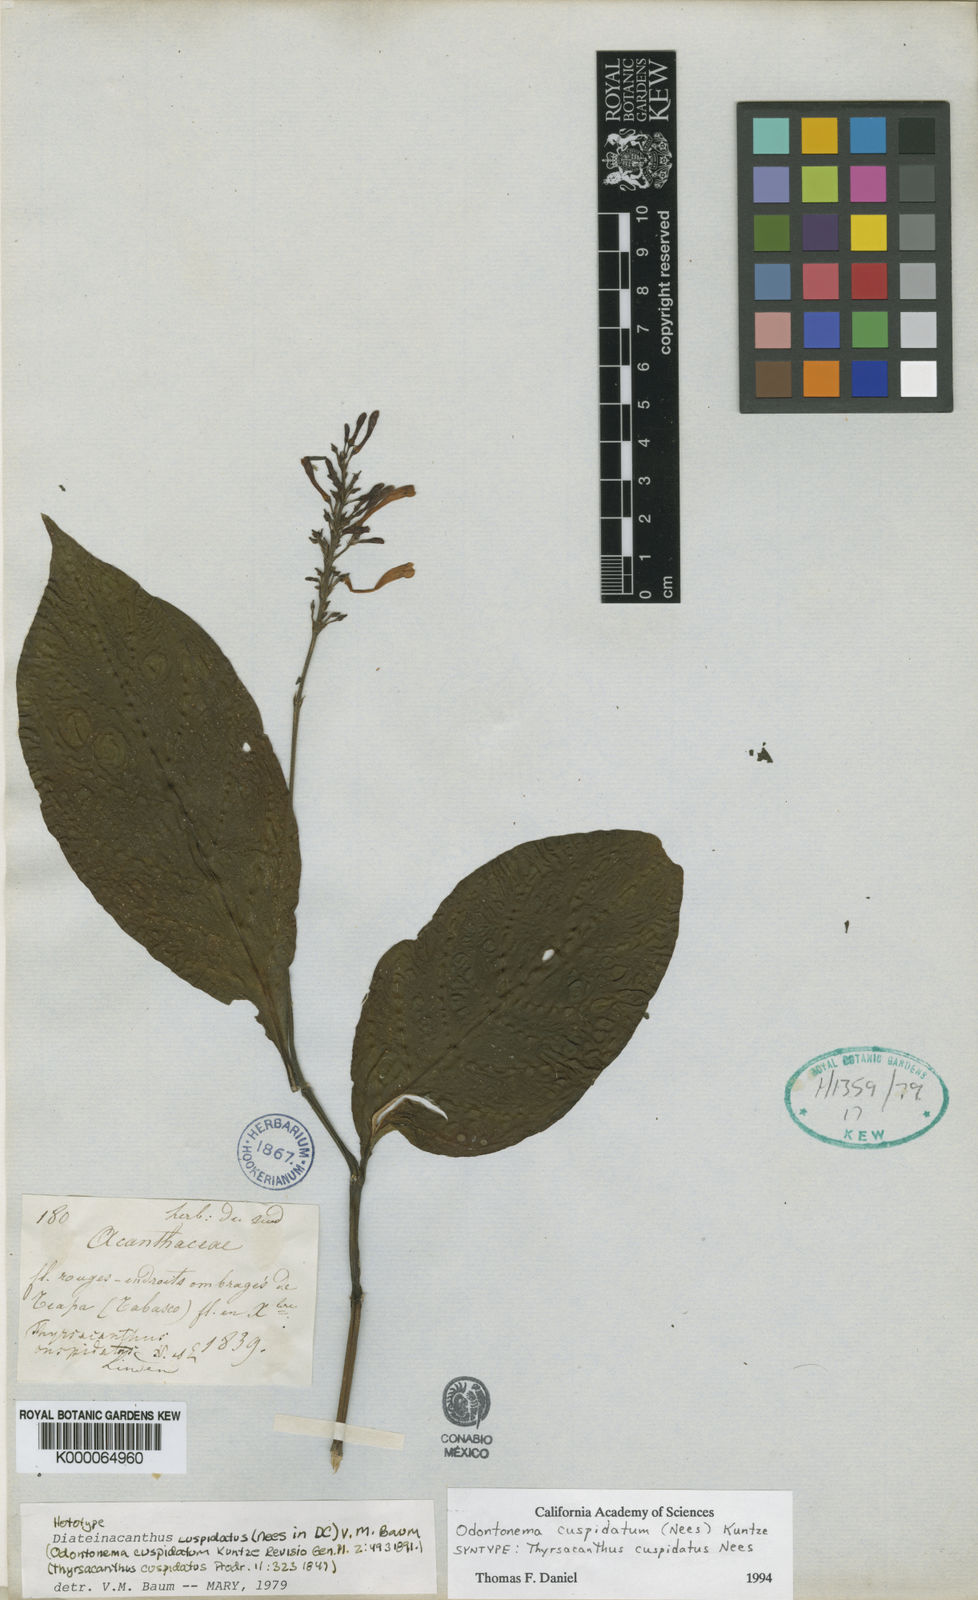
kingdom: Plantae
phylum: Tracheophyta
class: Magnoliopsida
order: Lamiales
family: Acanthaceae
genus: Odontonema
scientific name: Odontonema cuspidatum
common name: Mottled toothedthread
